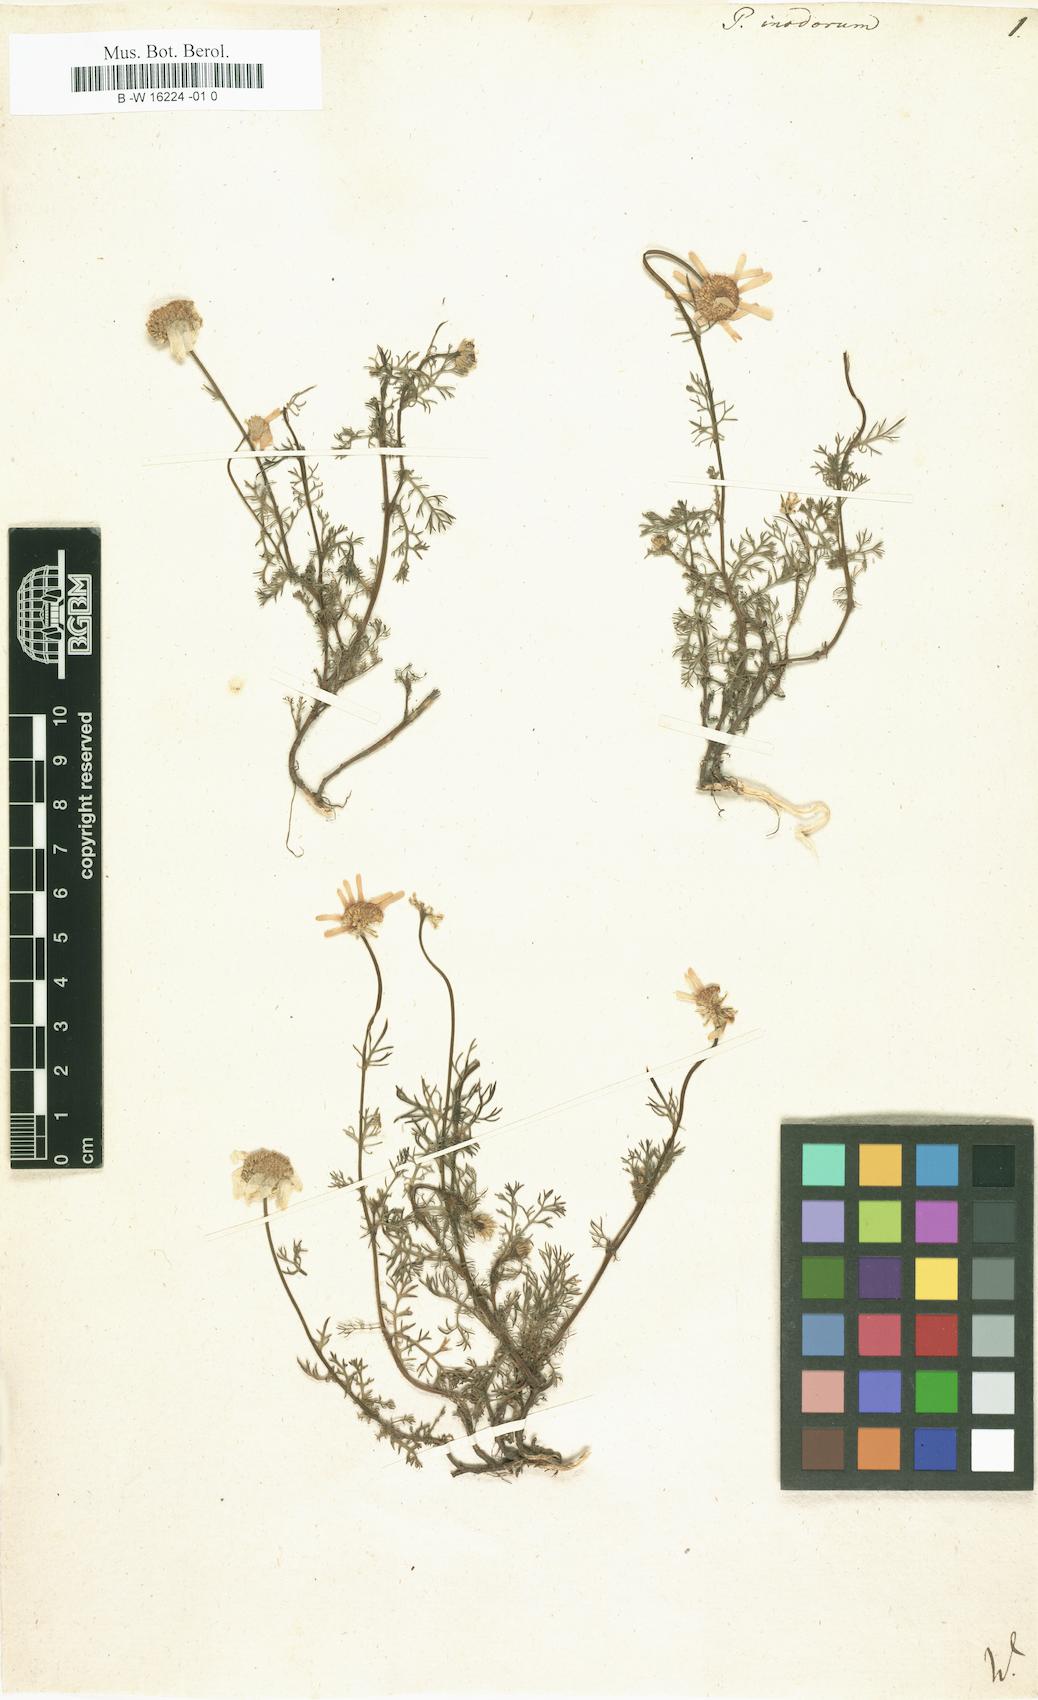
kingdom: Plantae
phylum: Tracheophyta
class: Magnoliopsida
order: Asterales
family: Asteraceae
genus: Tripleurospermum
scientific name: Tripleurospermum inodorum
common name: Scentless mayweed
